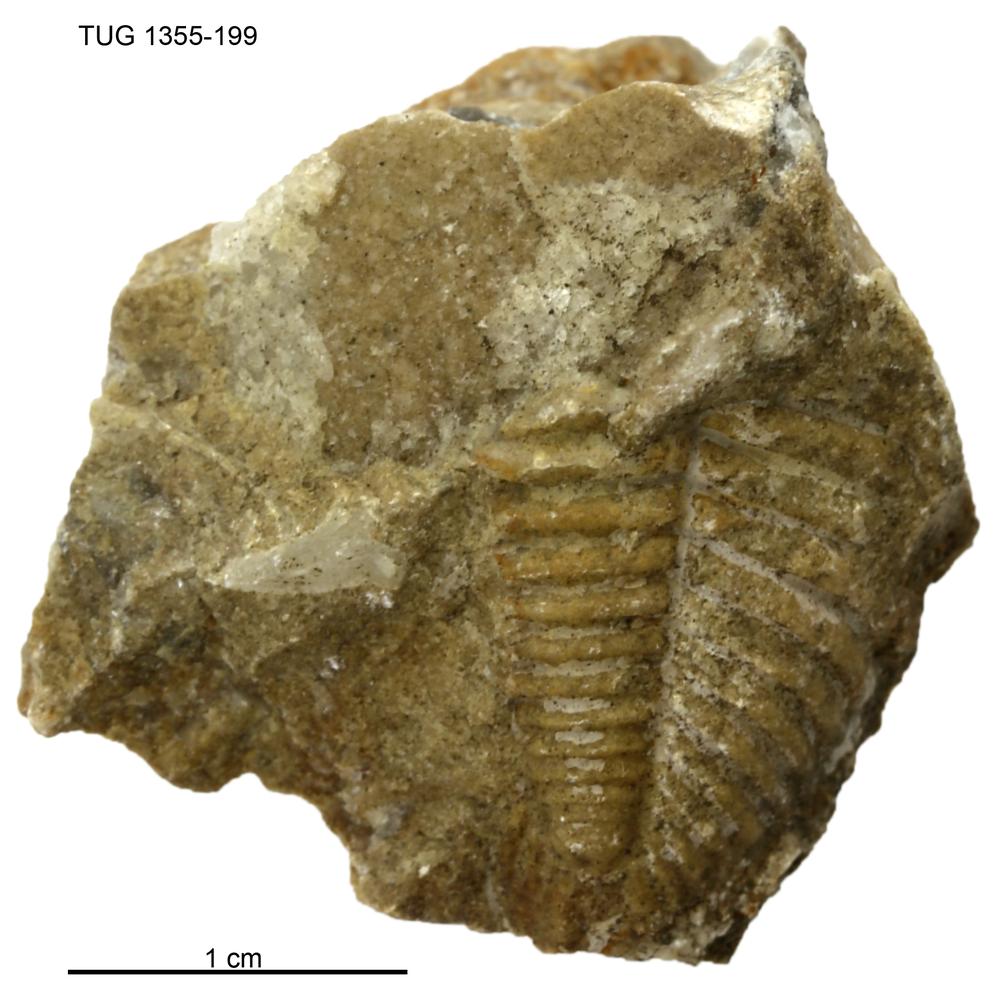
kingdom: Animalia
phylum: Arthropoda
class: Trilobita
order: Phacopida
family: Pterygometopidae
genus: Chasmops
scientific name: Chasmops macrourus
